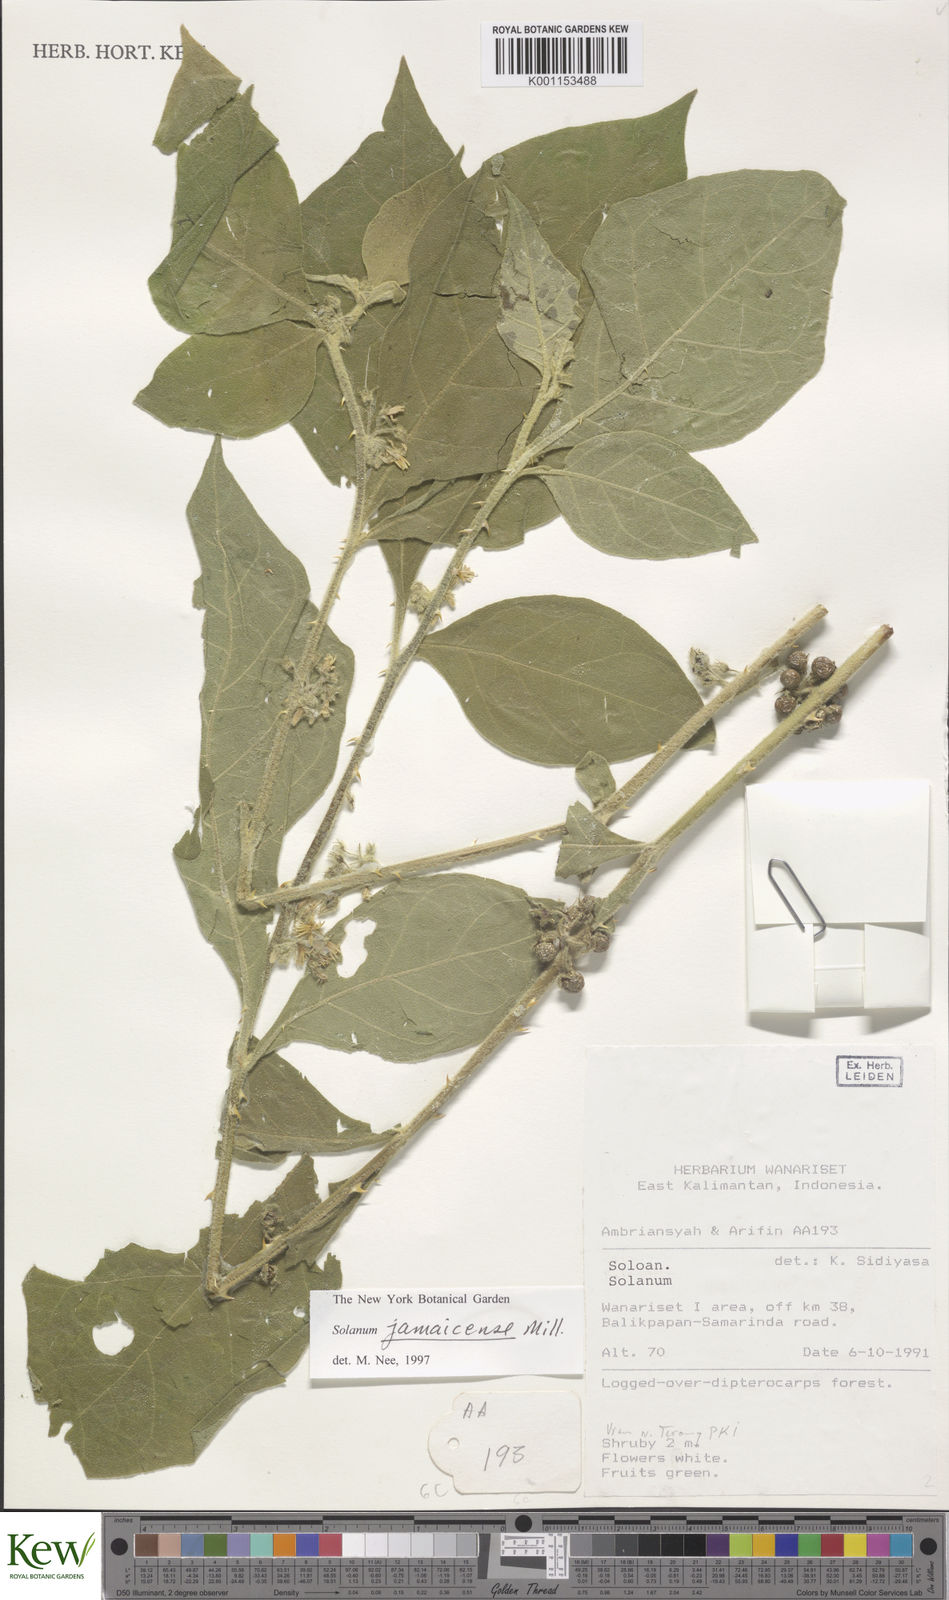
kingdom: Plantae
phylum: Tracheophyta
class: Magnoliopsida
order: Solanales
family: Solanaceae
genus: Solanum
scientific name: Solanum jamaicense
